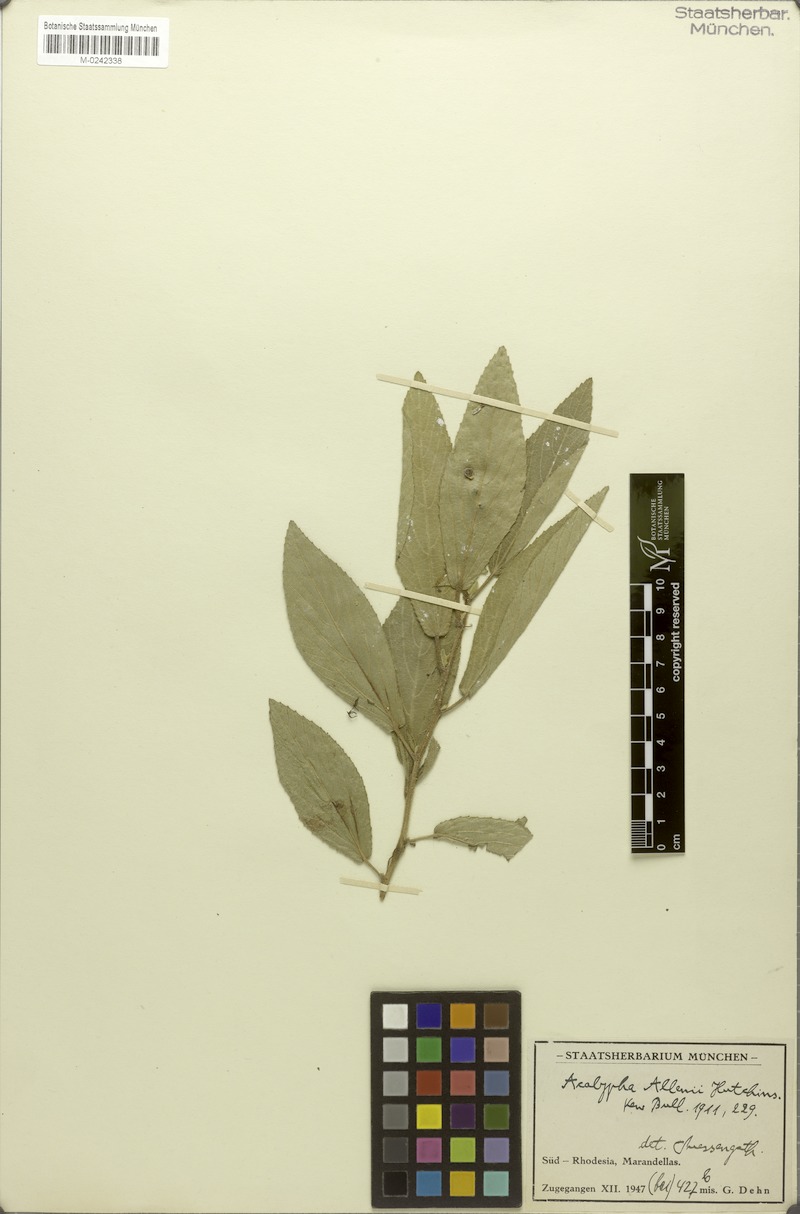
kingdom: Plantae
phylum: Tracheophyta
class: Magnoliopsida
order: Malpighiales
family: Euphorbiaceae
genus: Acalypha
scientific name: Acalypha allenii
